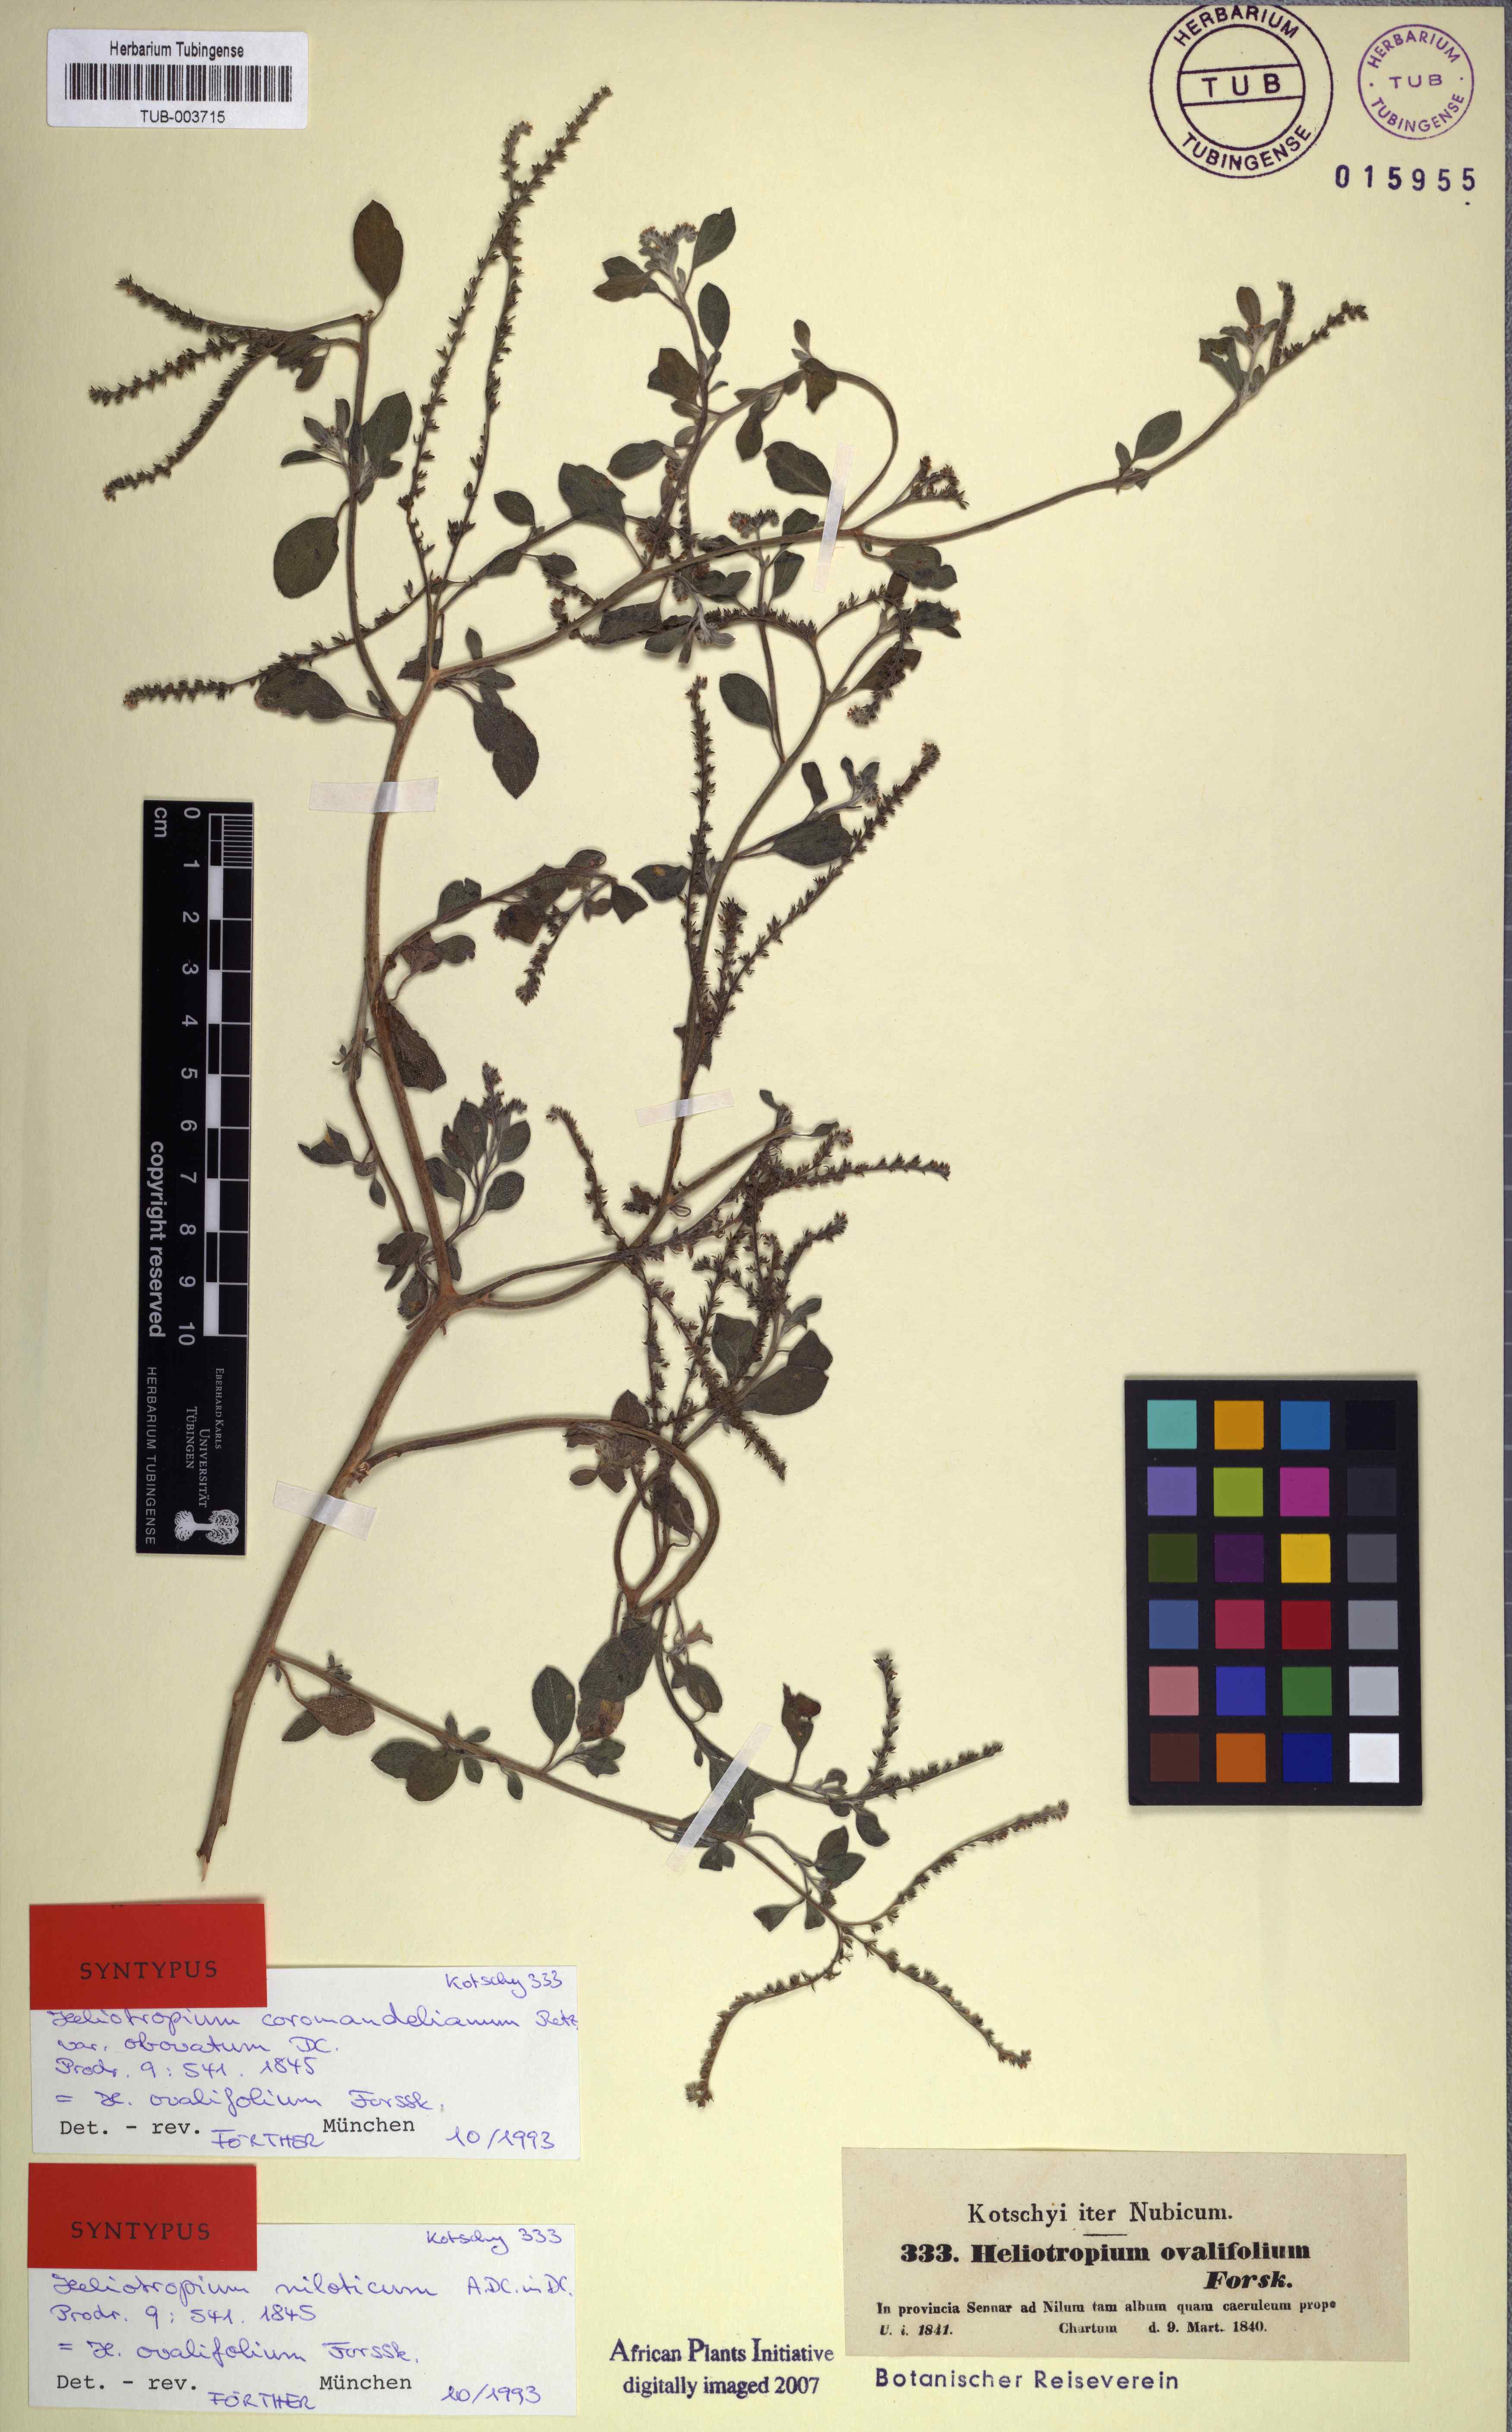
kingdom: Plantae
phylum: Tracheophyta
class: Magnoliopsida
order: Boraginales
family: Heliotropiaceae
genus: Euploca
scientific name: Euploca ovalifolia
